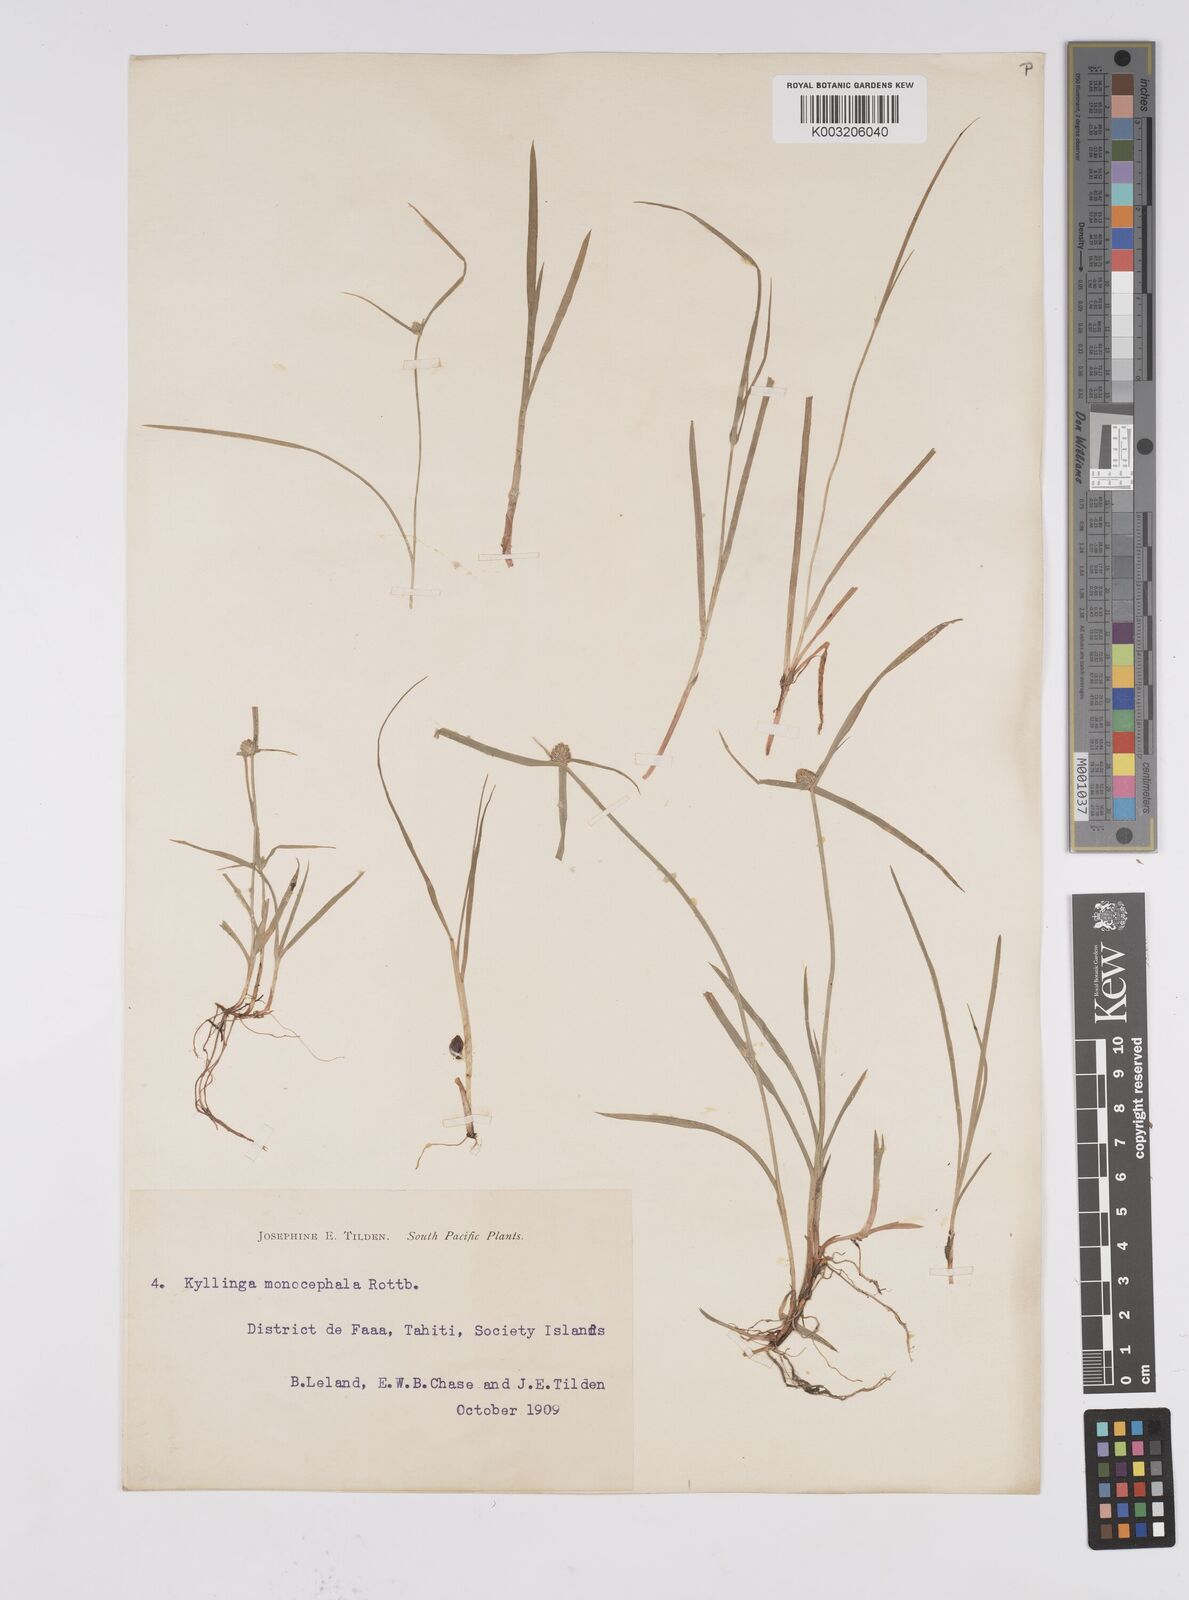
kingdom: Plantae
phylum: Tracheophyta
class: Liliopsida
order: Poales
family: Cyperaceae
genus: Cyperus
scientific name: Cyperus brevifolius
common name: Globe kyllinga
